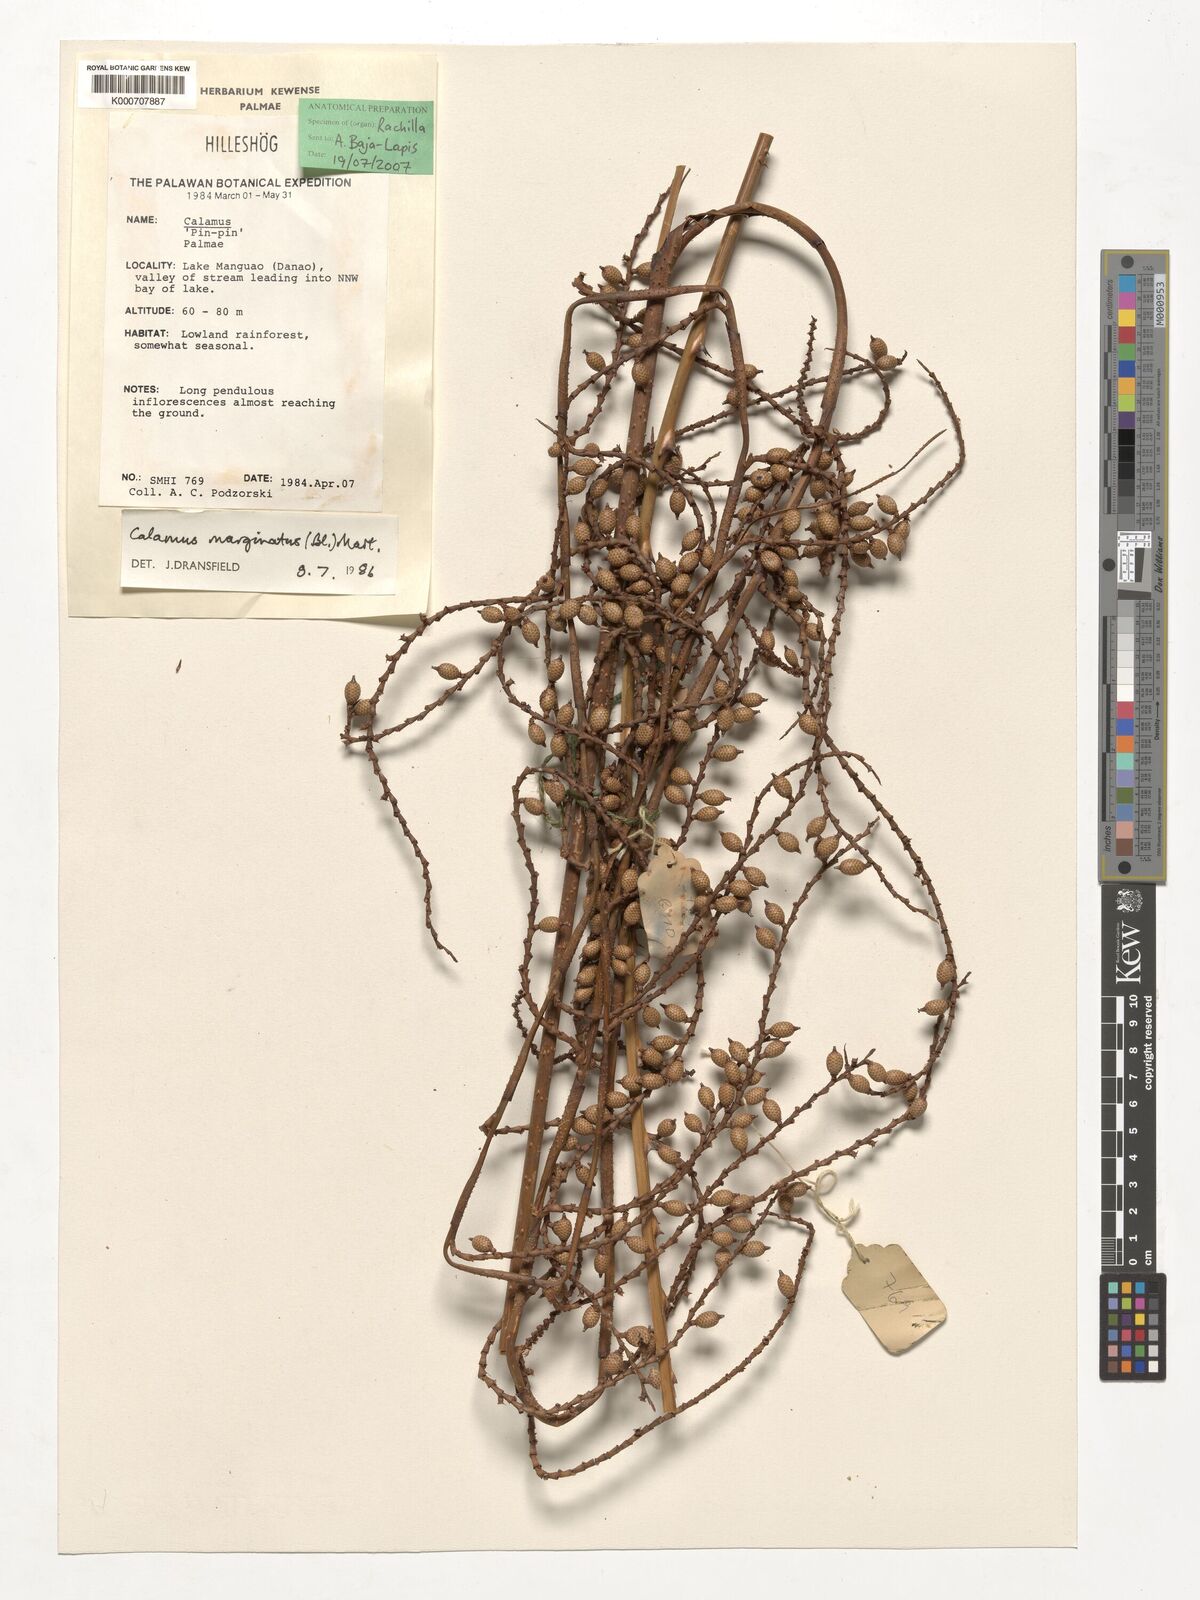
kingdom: Plantae
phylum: Tracheophyta
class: Liliopsida
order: Arecales
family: Arecaceae
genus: Calamus
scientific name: Calamus marginatus
